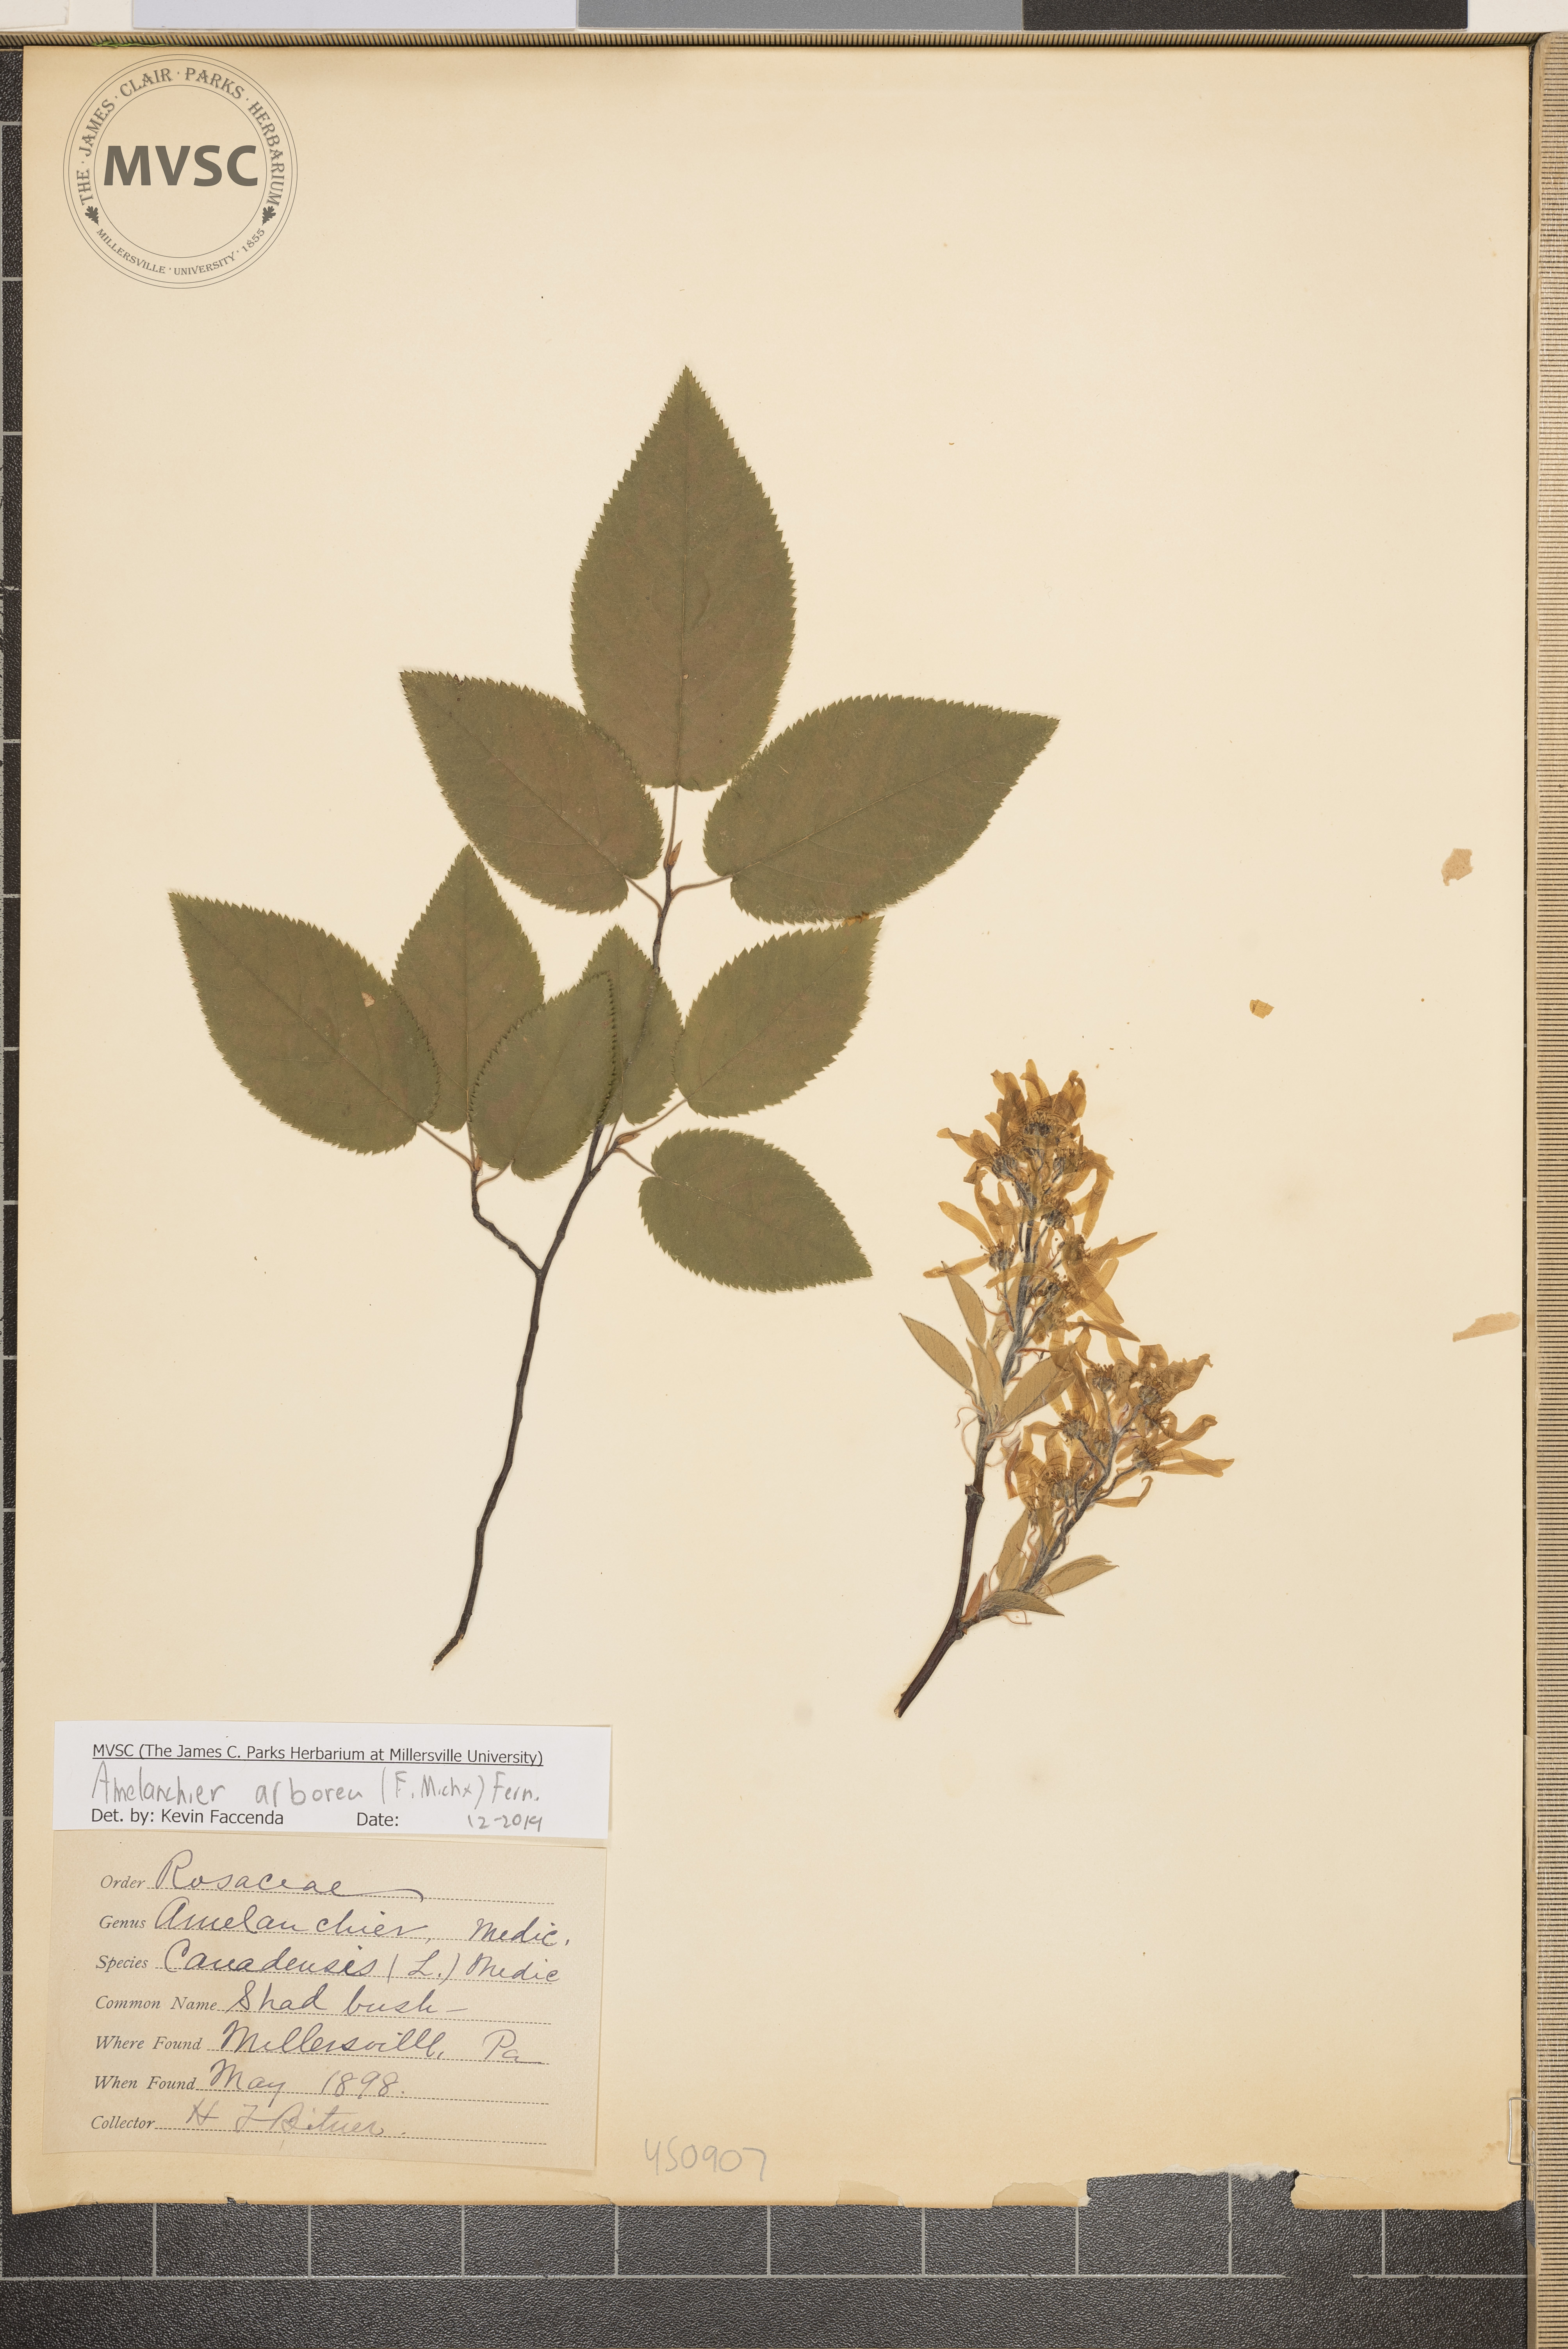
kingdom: Plantae
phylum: Tracheophyta
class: Magnoliopsida
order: Rosales
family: Rosaceae
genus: Amelanchier
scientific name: Amelanchier arborea
